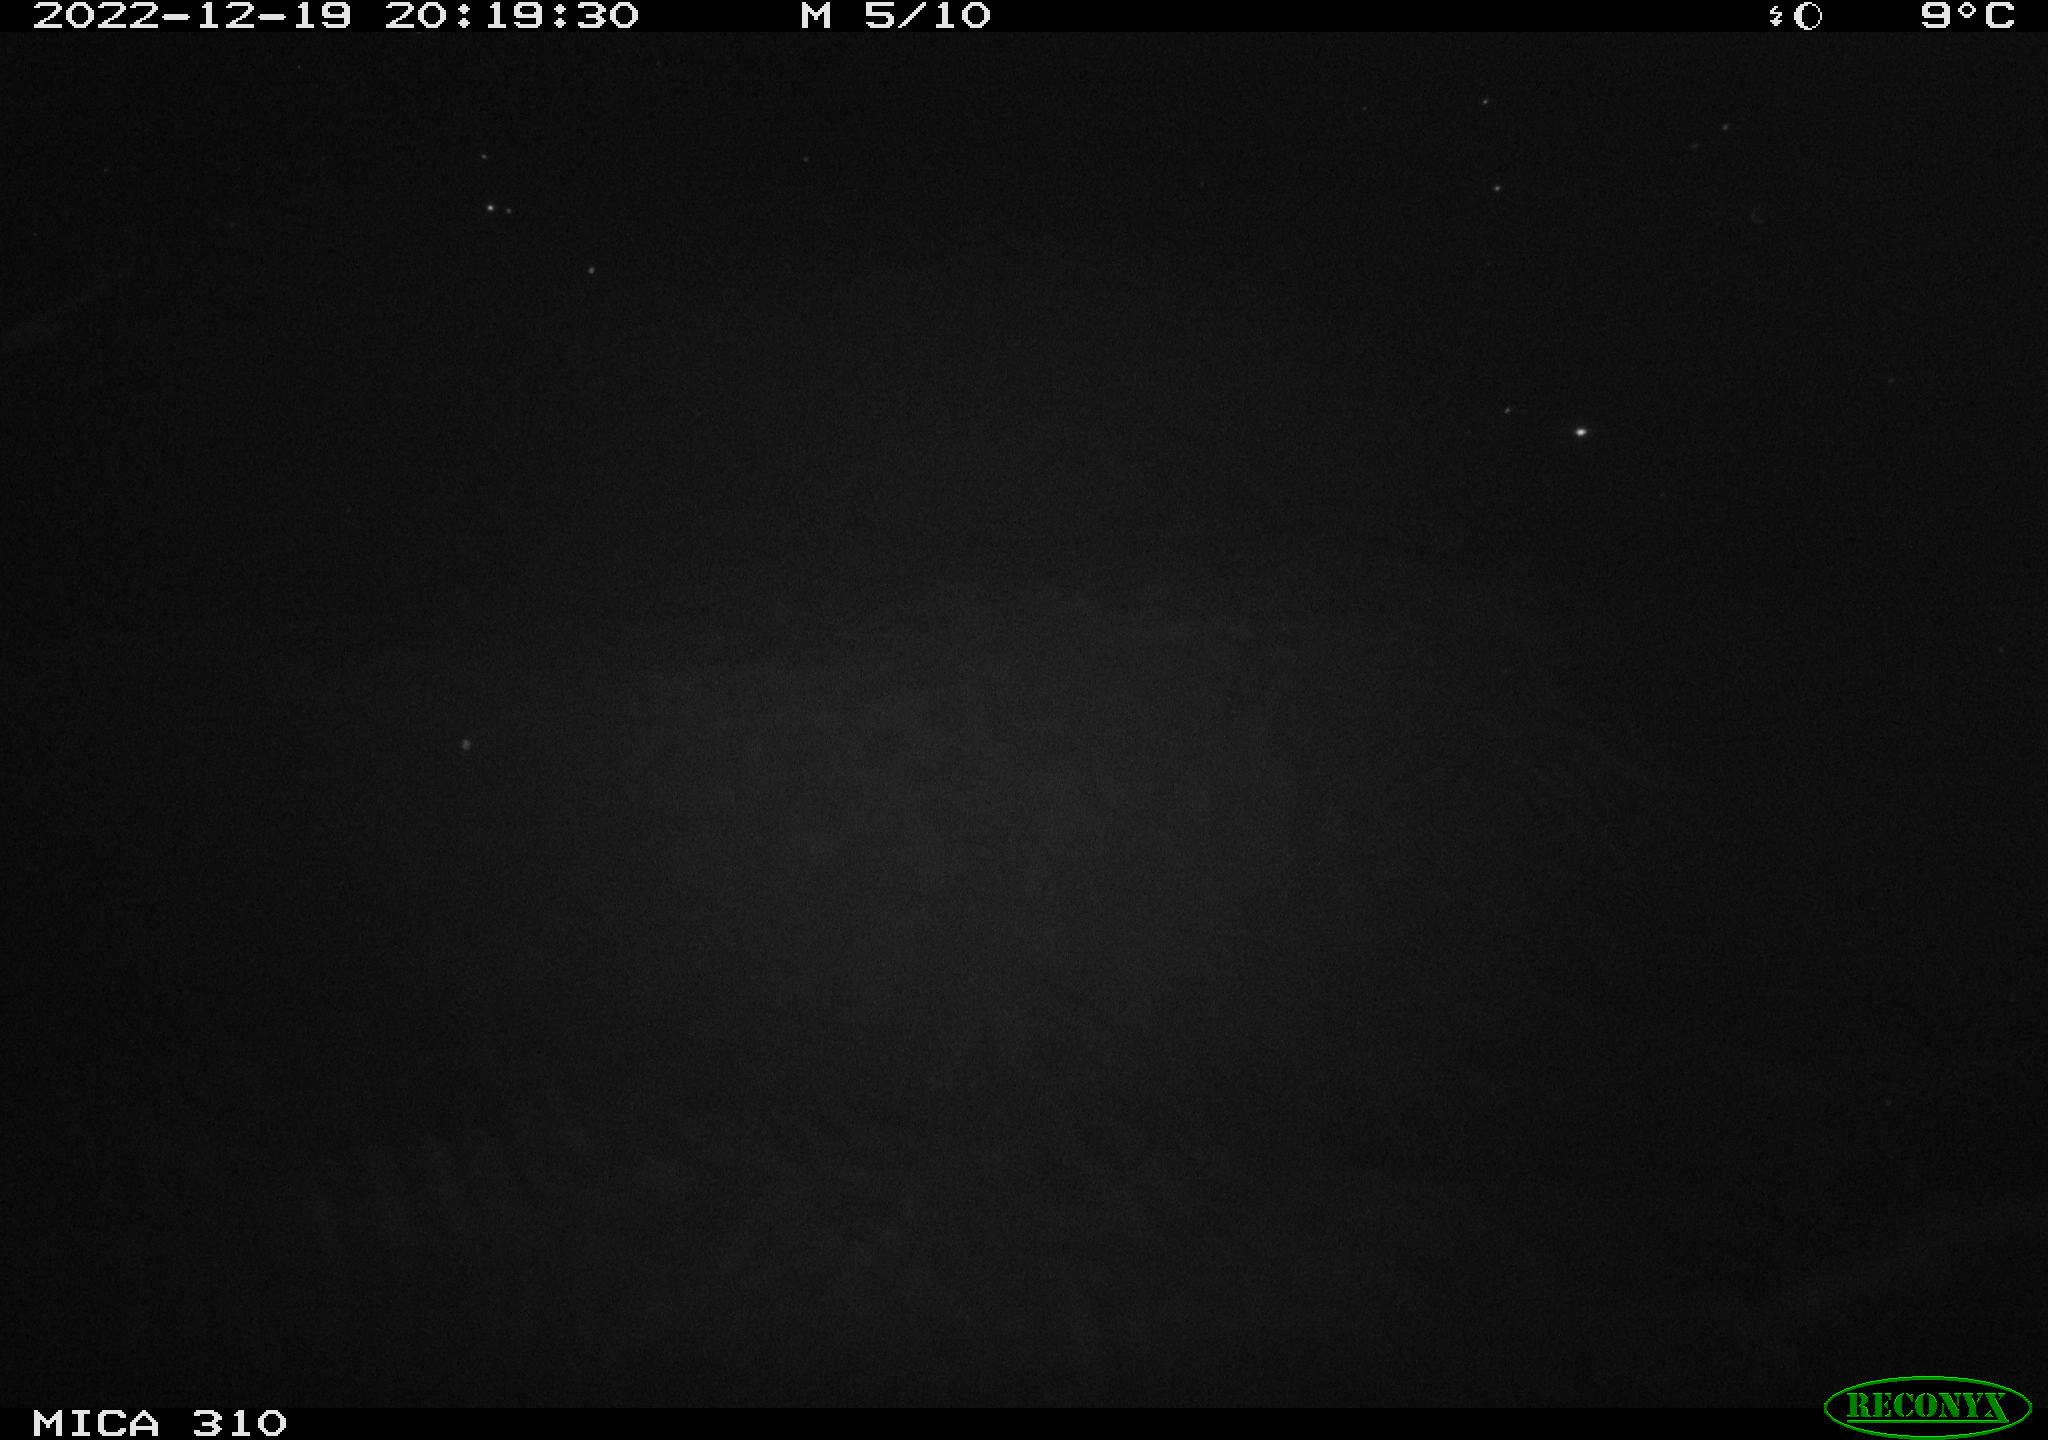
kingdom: Animalia
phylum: Chordata
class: Mammalia
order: Rodentia
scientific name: Rodentia
